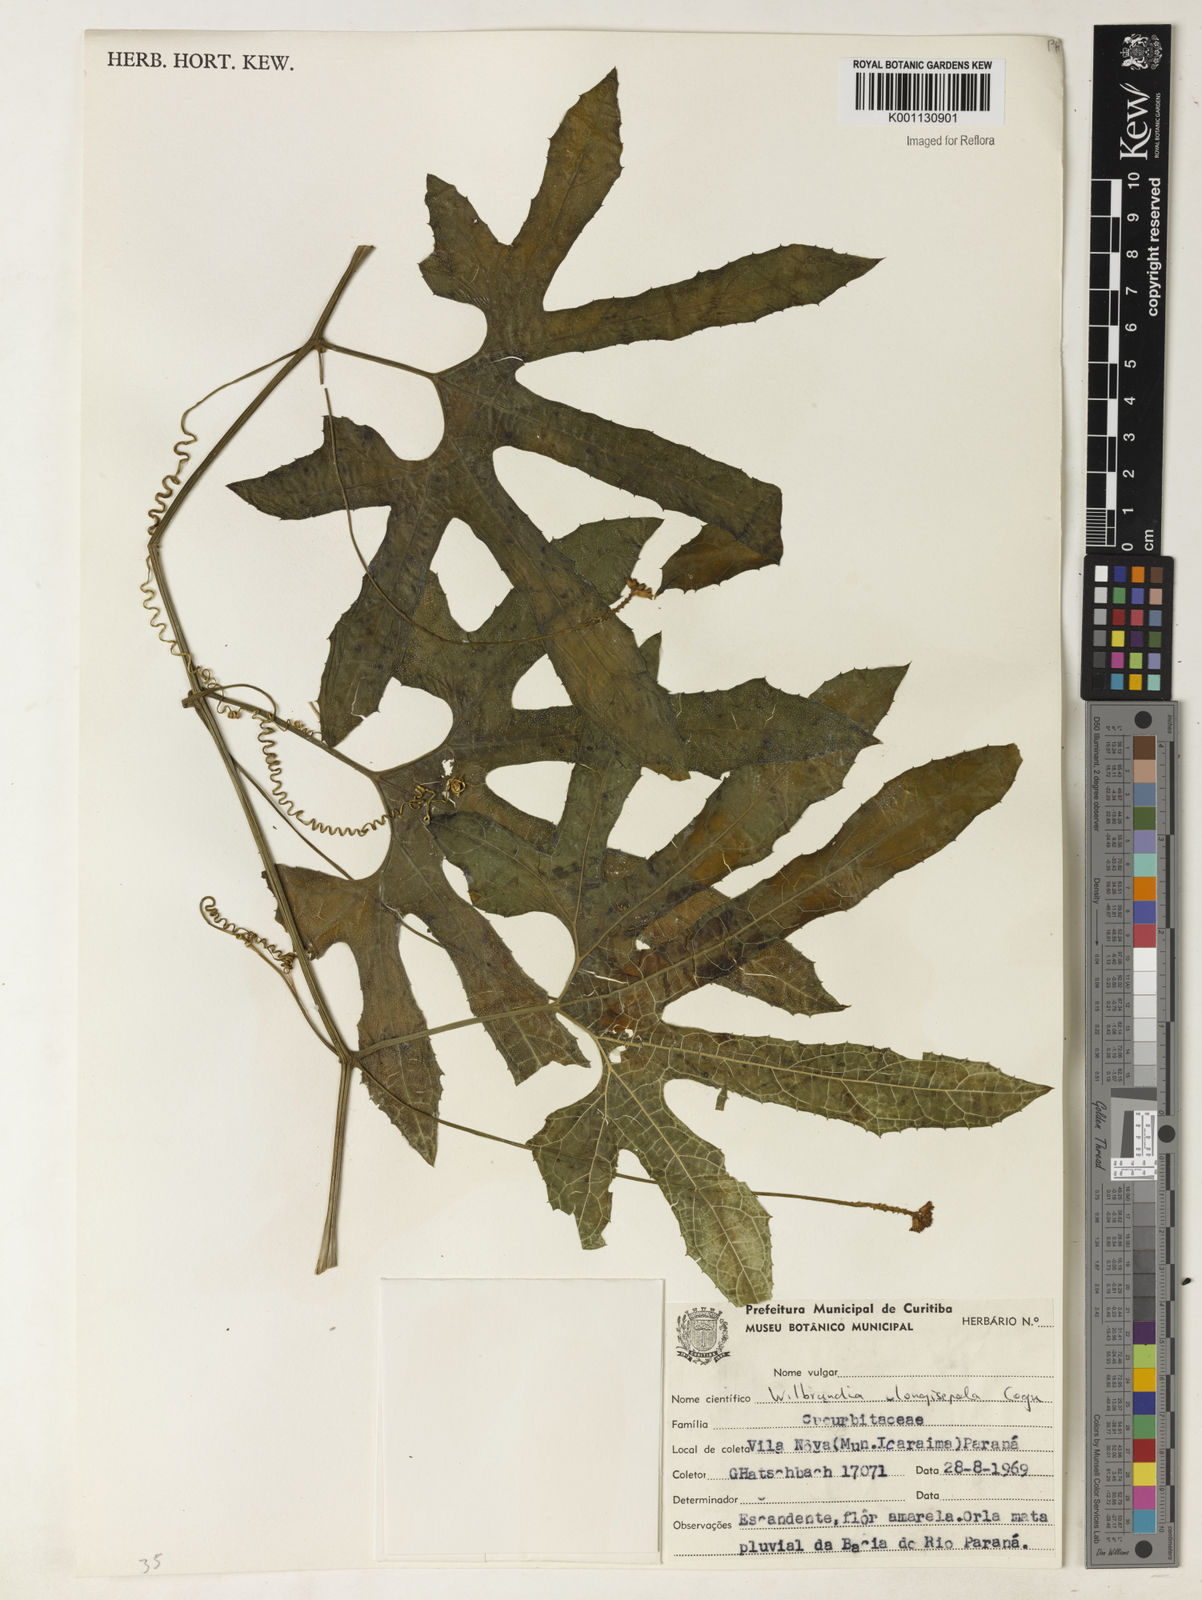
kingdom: Plantae
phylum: Tracheophyta
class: Magnoliopsida
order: Cucurbitales
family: Cucurbitaceae
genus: Wilbrandia
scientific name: Wilbrandia longisepala
